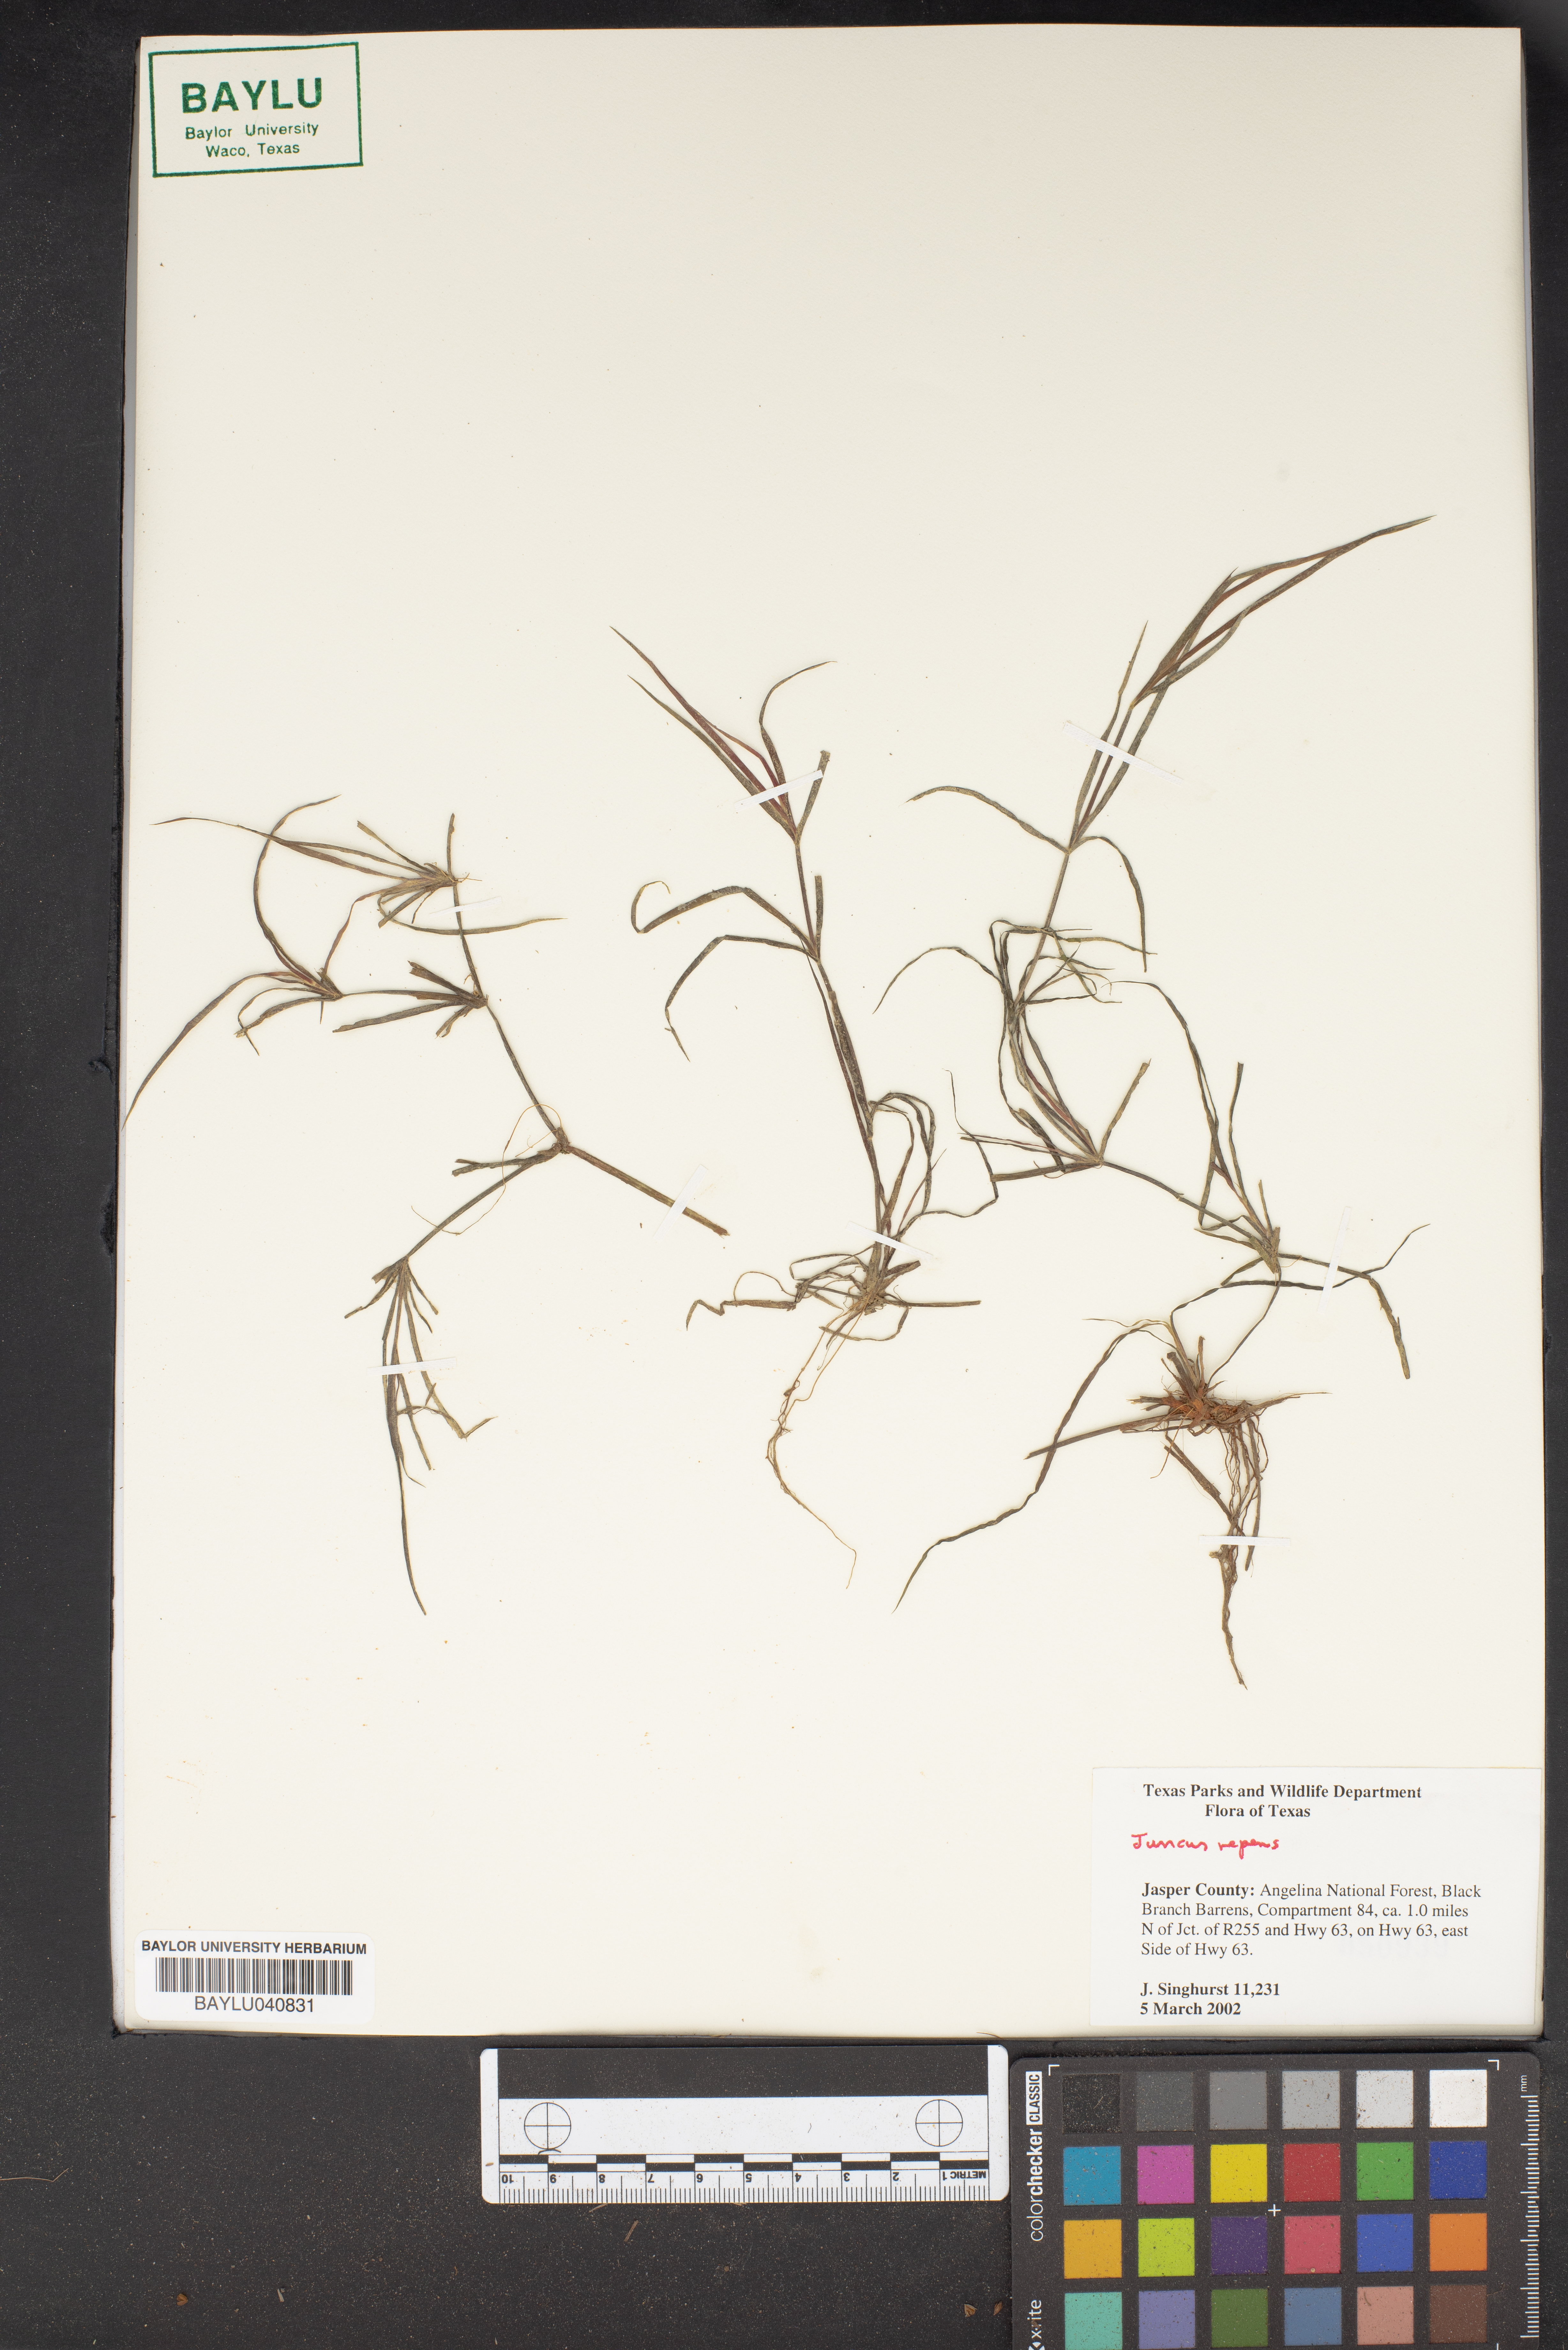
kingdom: Plantae
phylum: Tracheophyta
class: Liliopsida
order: Poales
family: Juncaceae
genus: Juncus
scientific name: Juncus repens
